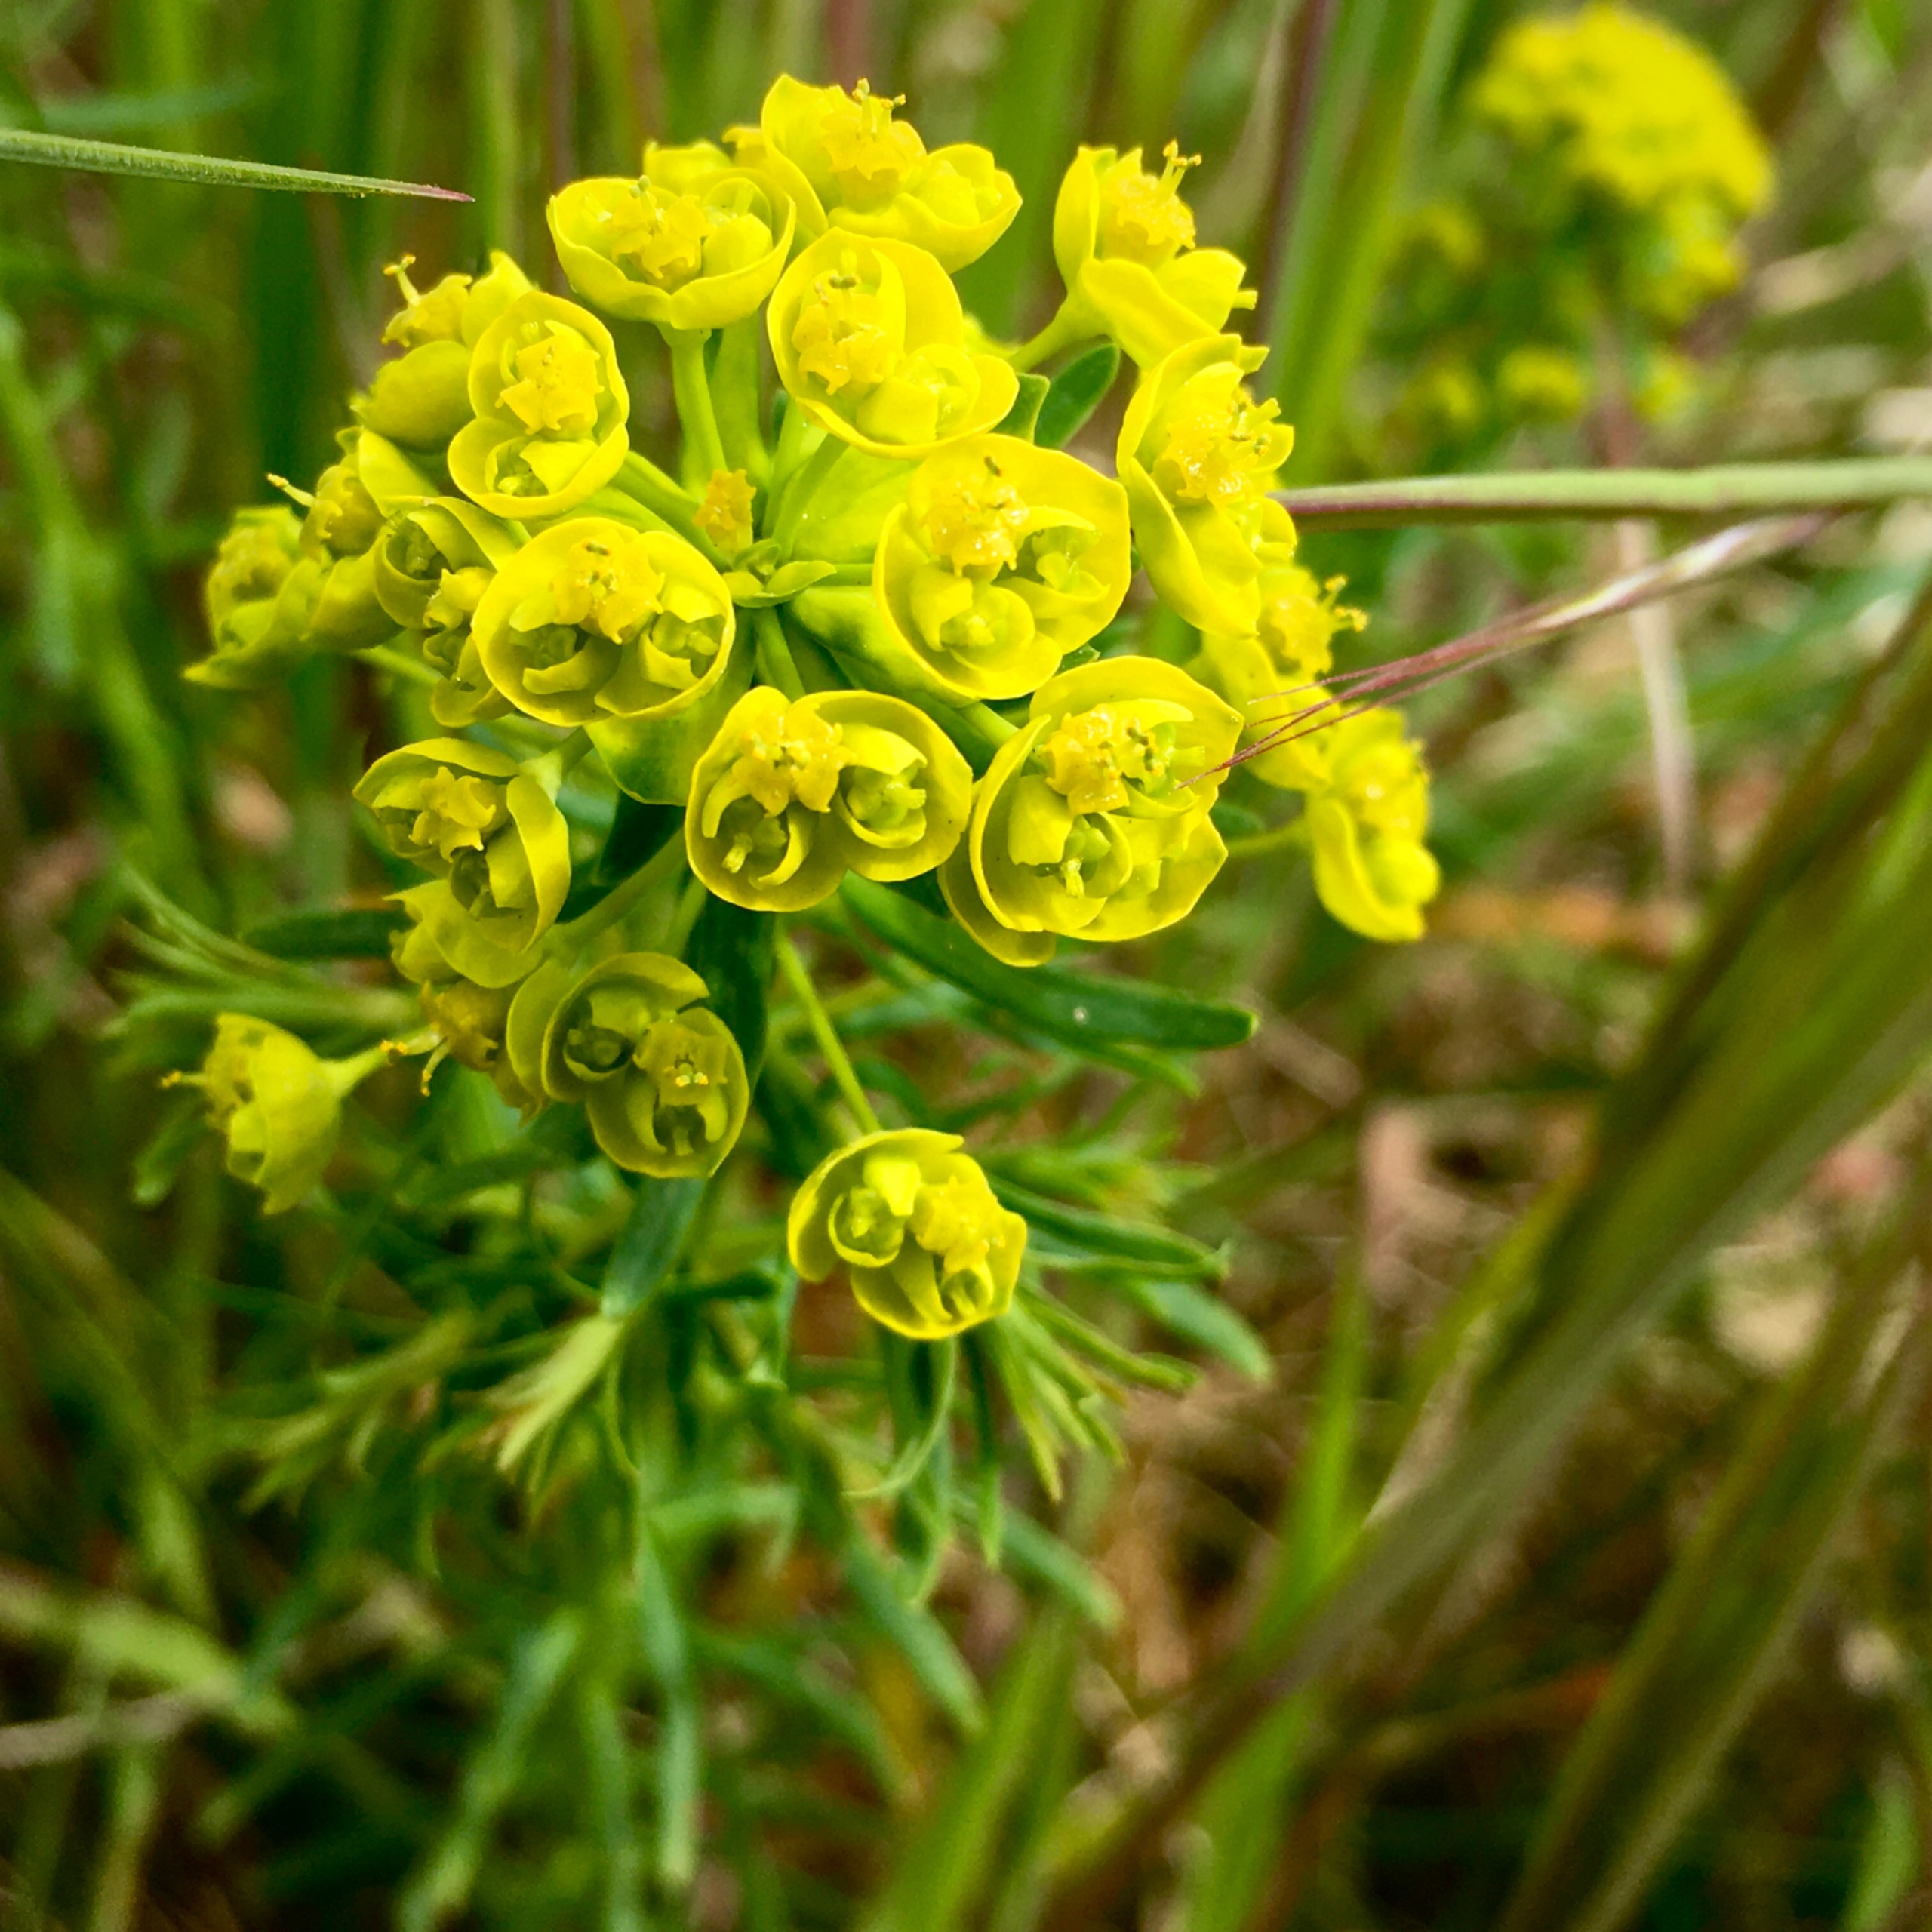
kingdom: Plantae
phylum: Tracheophyta
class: Magnoliopsida
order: Malpighiales
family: Euphorbiaceae
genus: Euphorbia
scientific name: Euphorbia cyparissias
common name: Cypres-vortemælk
